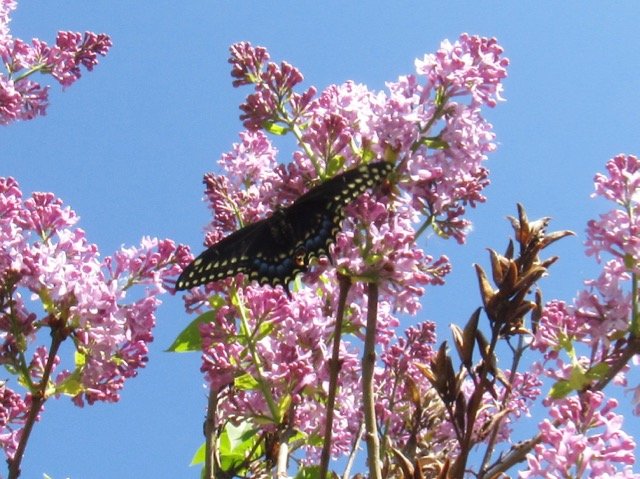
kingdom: Animalia
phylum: Arthropoda
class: Insecta
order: Lepidoptera
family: Papilionidae
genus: Papilio
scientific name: Papilio polyxenes
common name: Black Swallowtail
